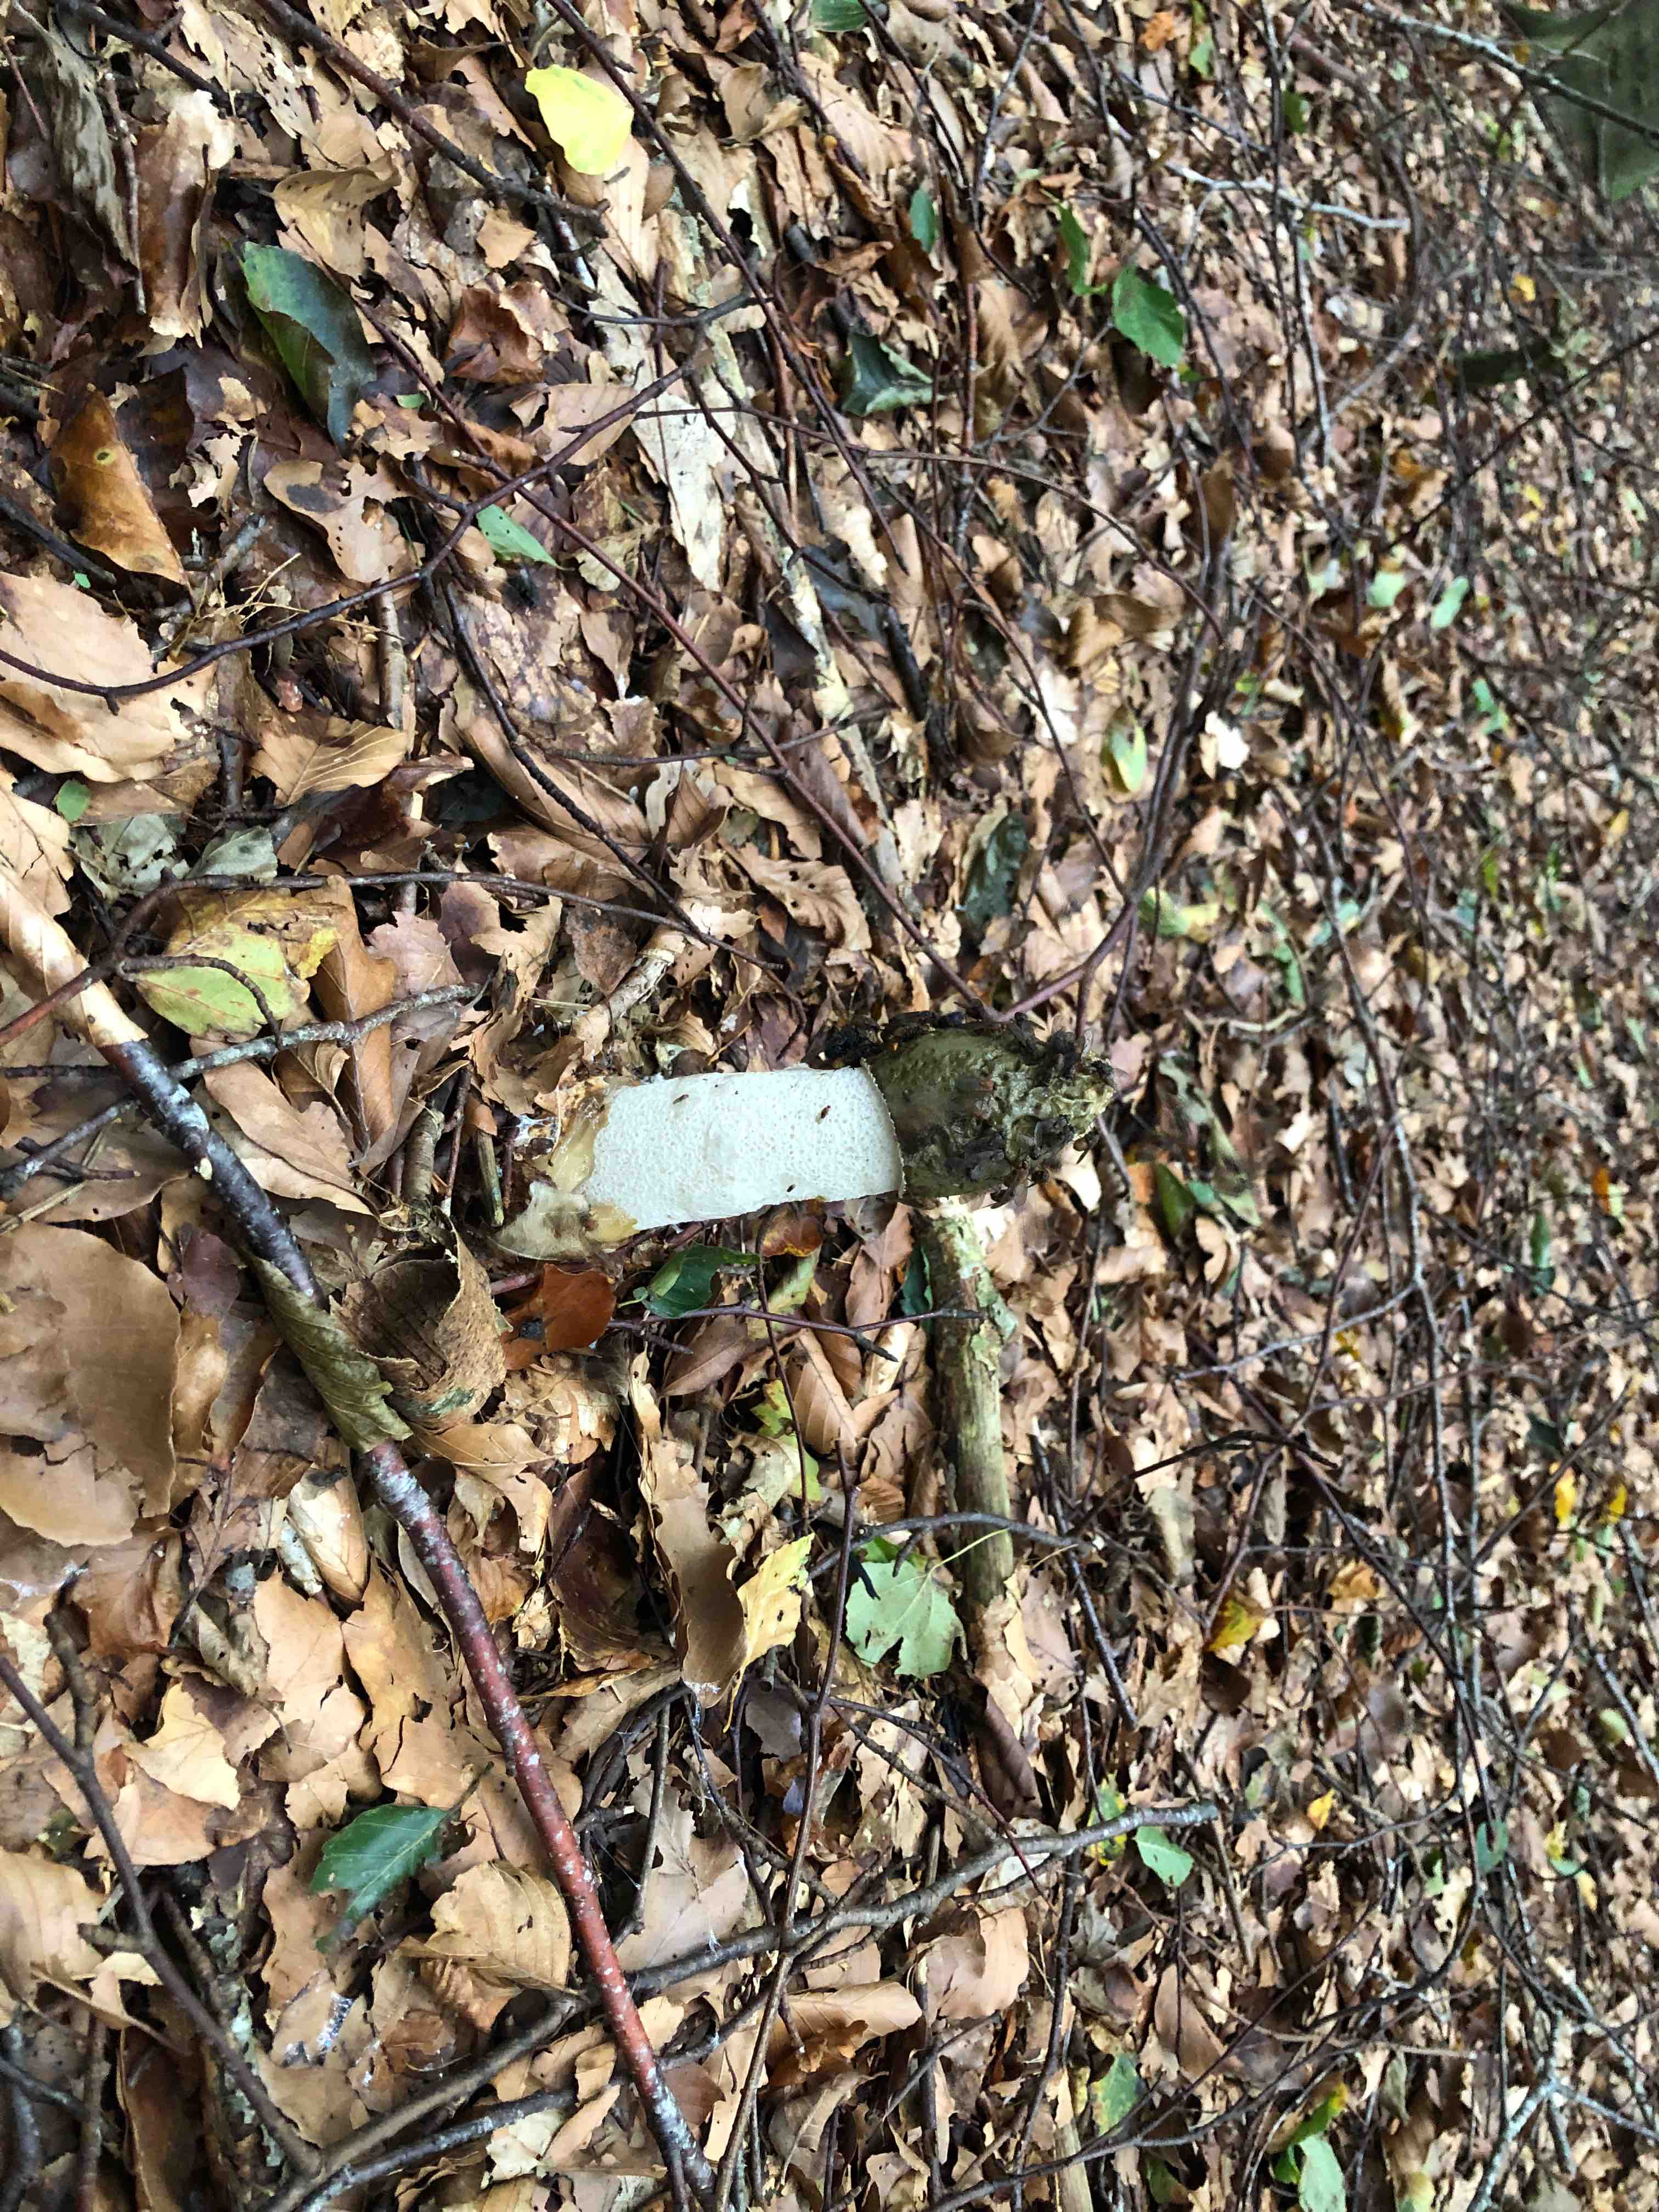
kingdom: Fungi
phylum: Basidiomycota
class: Agaricomycetes
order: Phallales
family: Phallaceae
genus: Phallus
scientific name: Phallus impudicus
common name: almindelig stinksvamp
